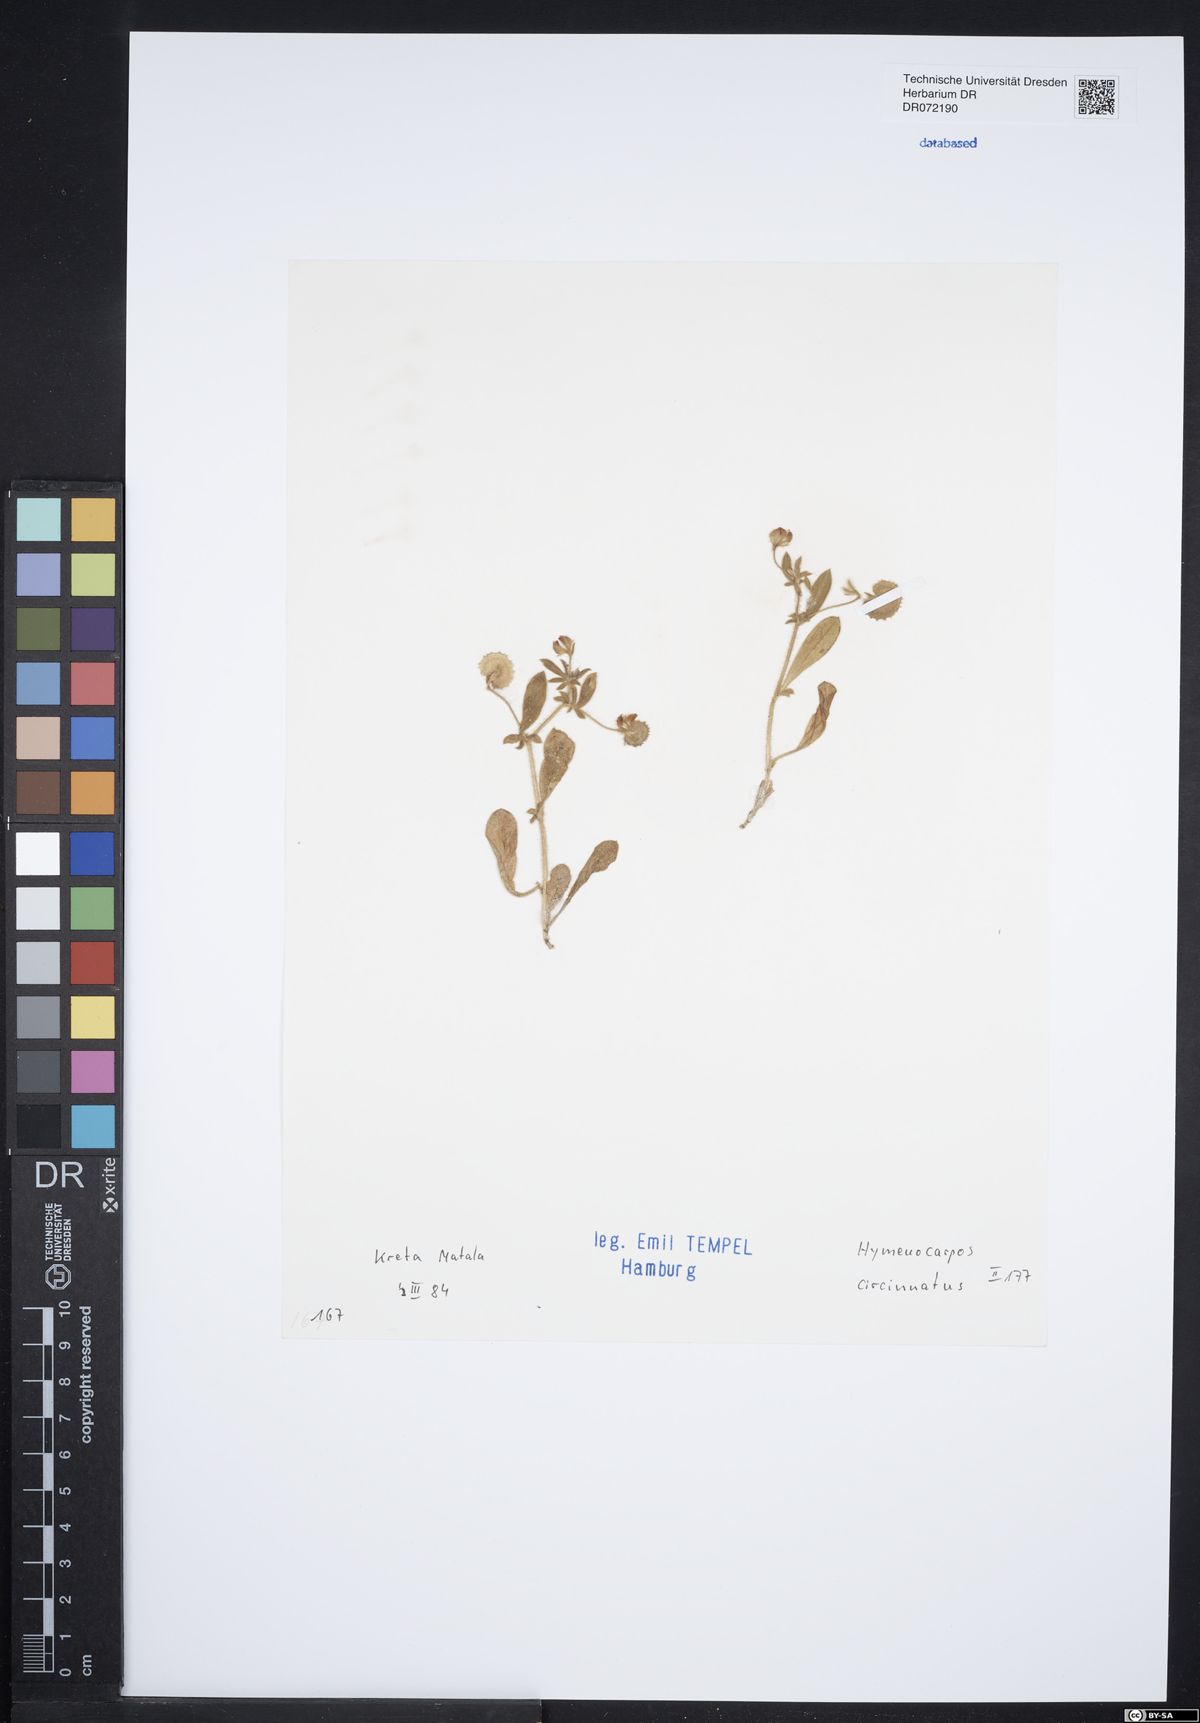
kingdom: Plantae
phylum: Tracheophyta
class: Magnoliopsida
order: Fabales
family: Fabaceae
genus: Anthyllis
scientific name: Anthyllis circinnata
